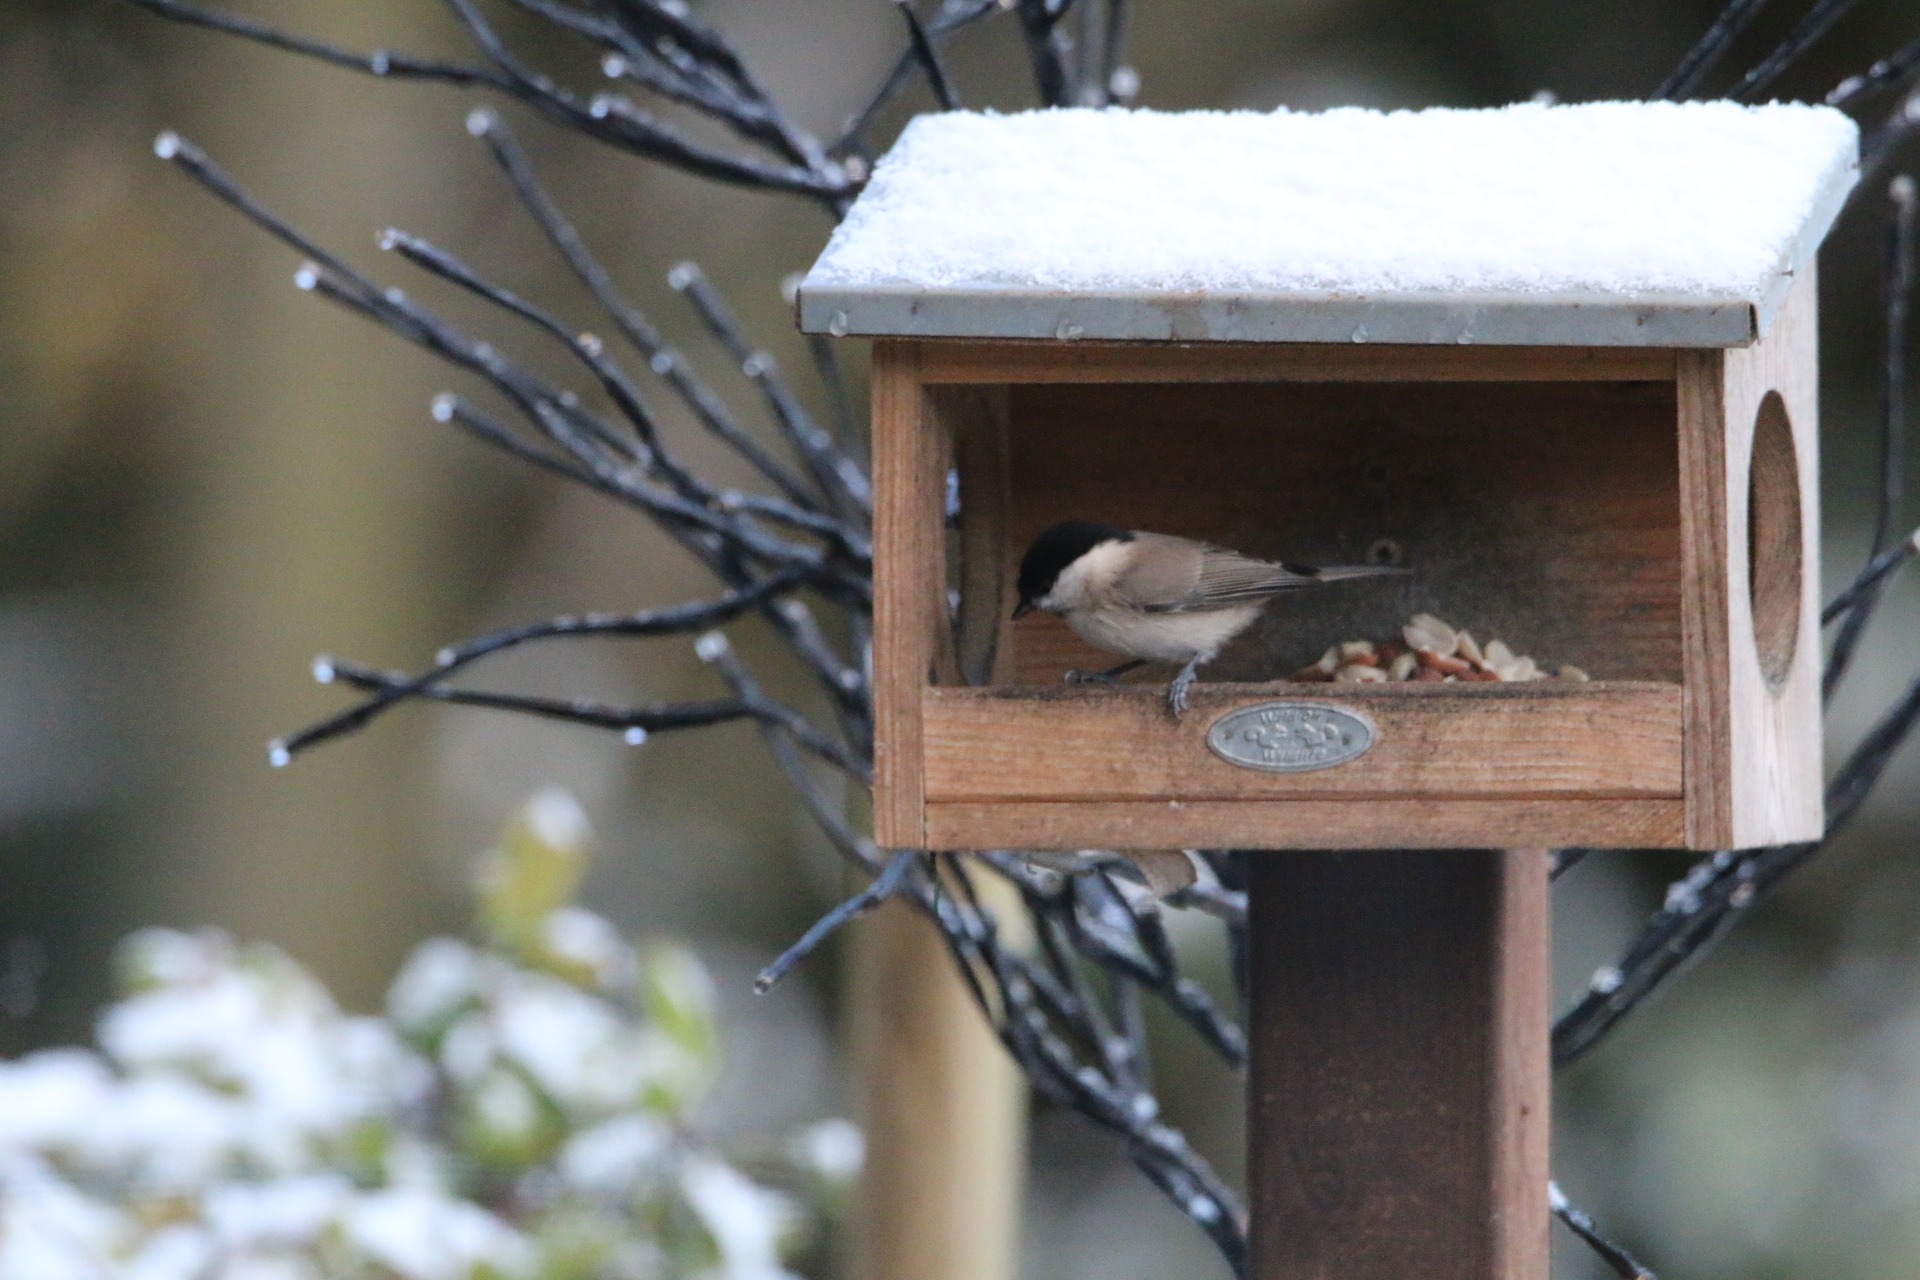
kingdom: Animalia
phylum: Chordata
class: Aves
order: Passeriformes
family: Paridae
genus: Poecile
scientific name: Poecile palustris
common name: Sumpmejse
